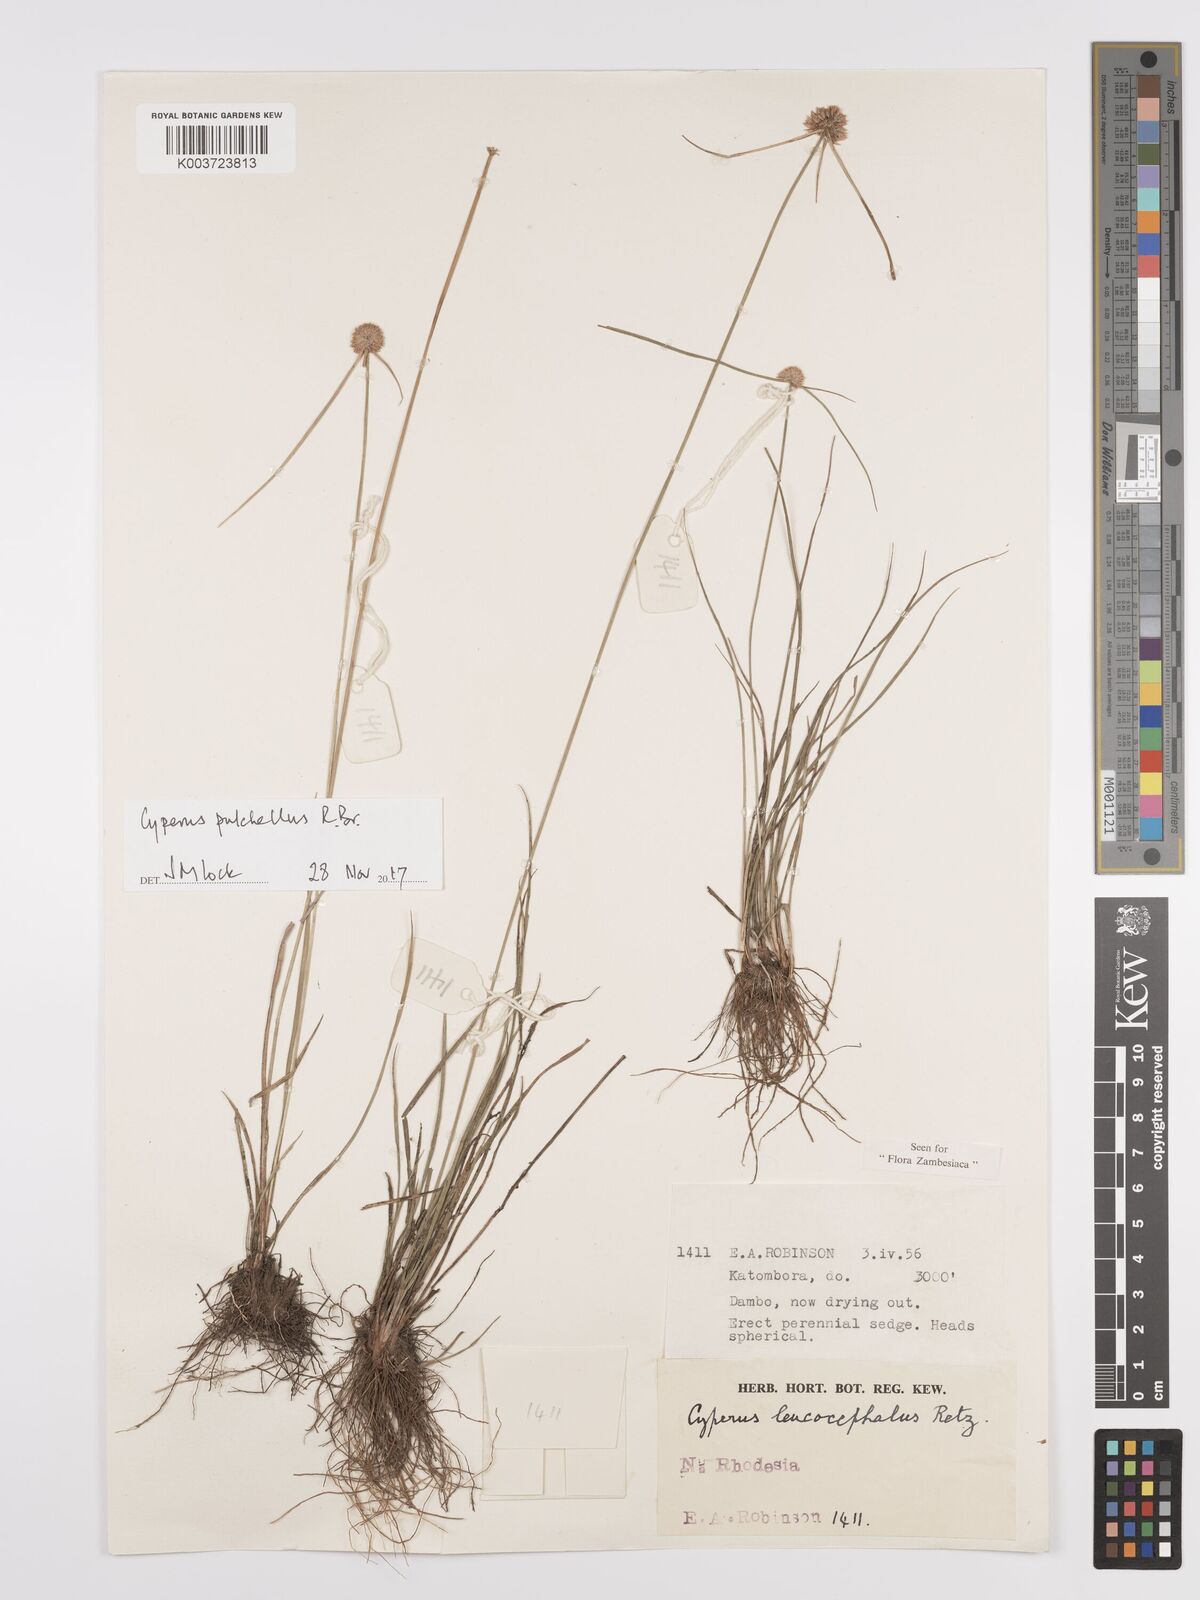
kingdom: Plantae
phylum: Tracheophyta
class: Liliopsida
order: Poales
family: Cyperaceae
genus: Cyperus
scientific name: Cyperus pulchellus
